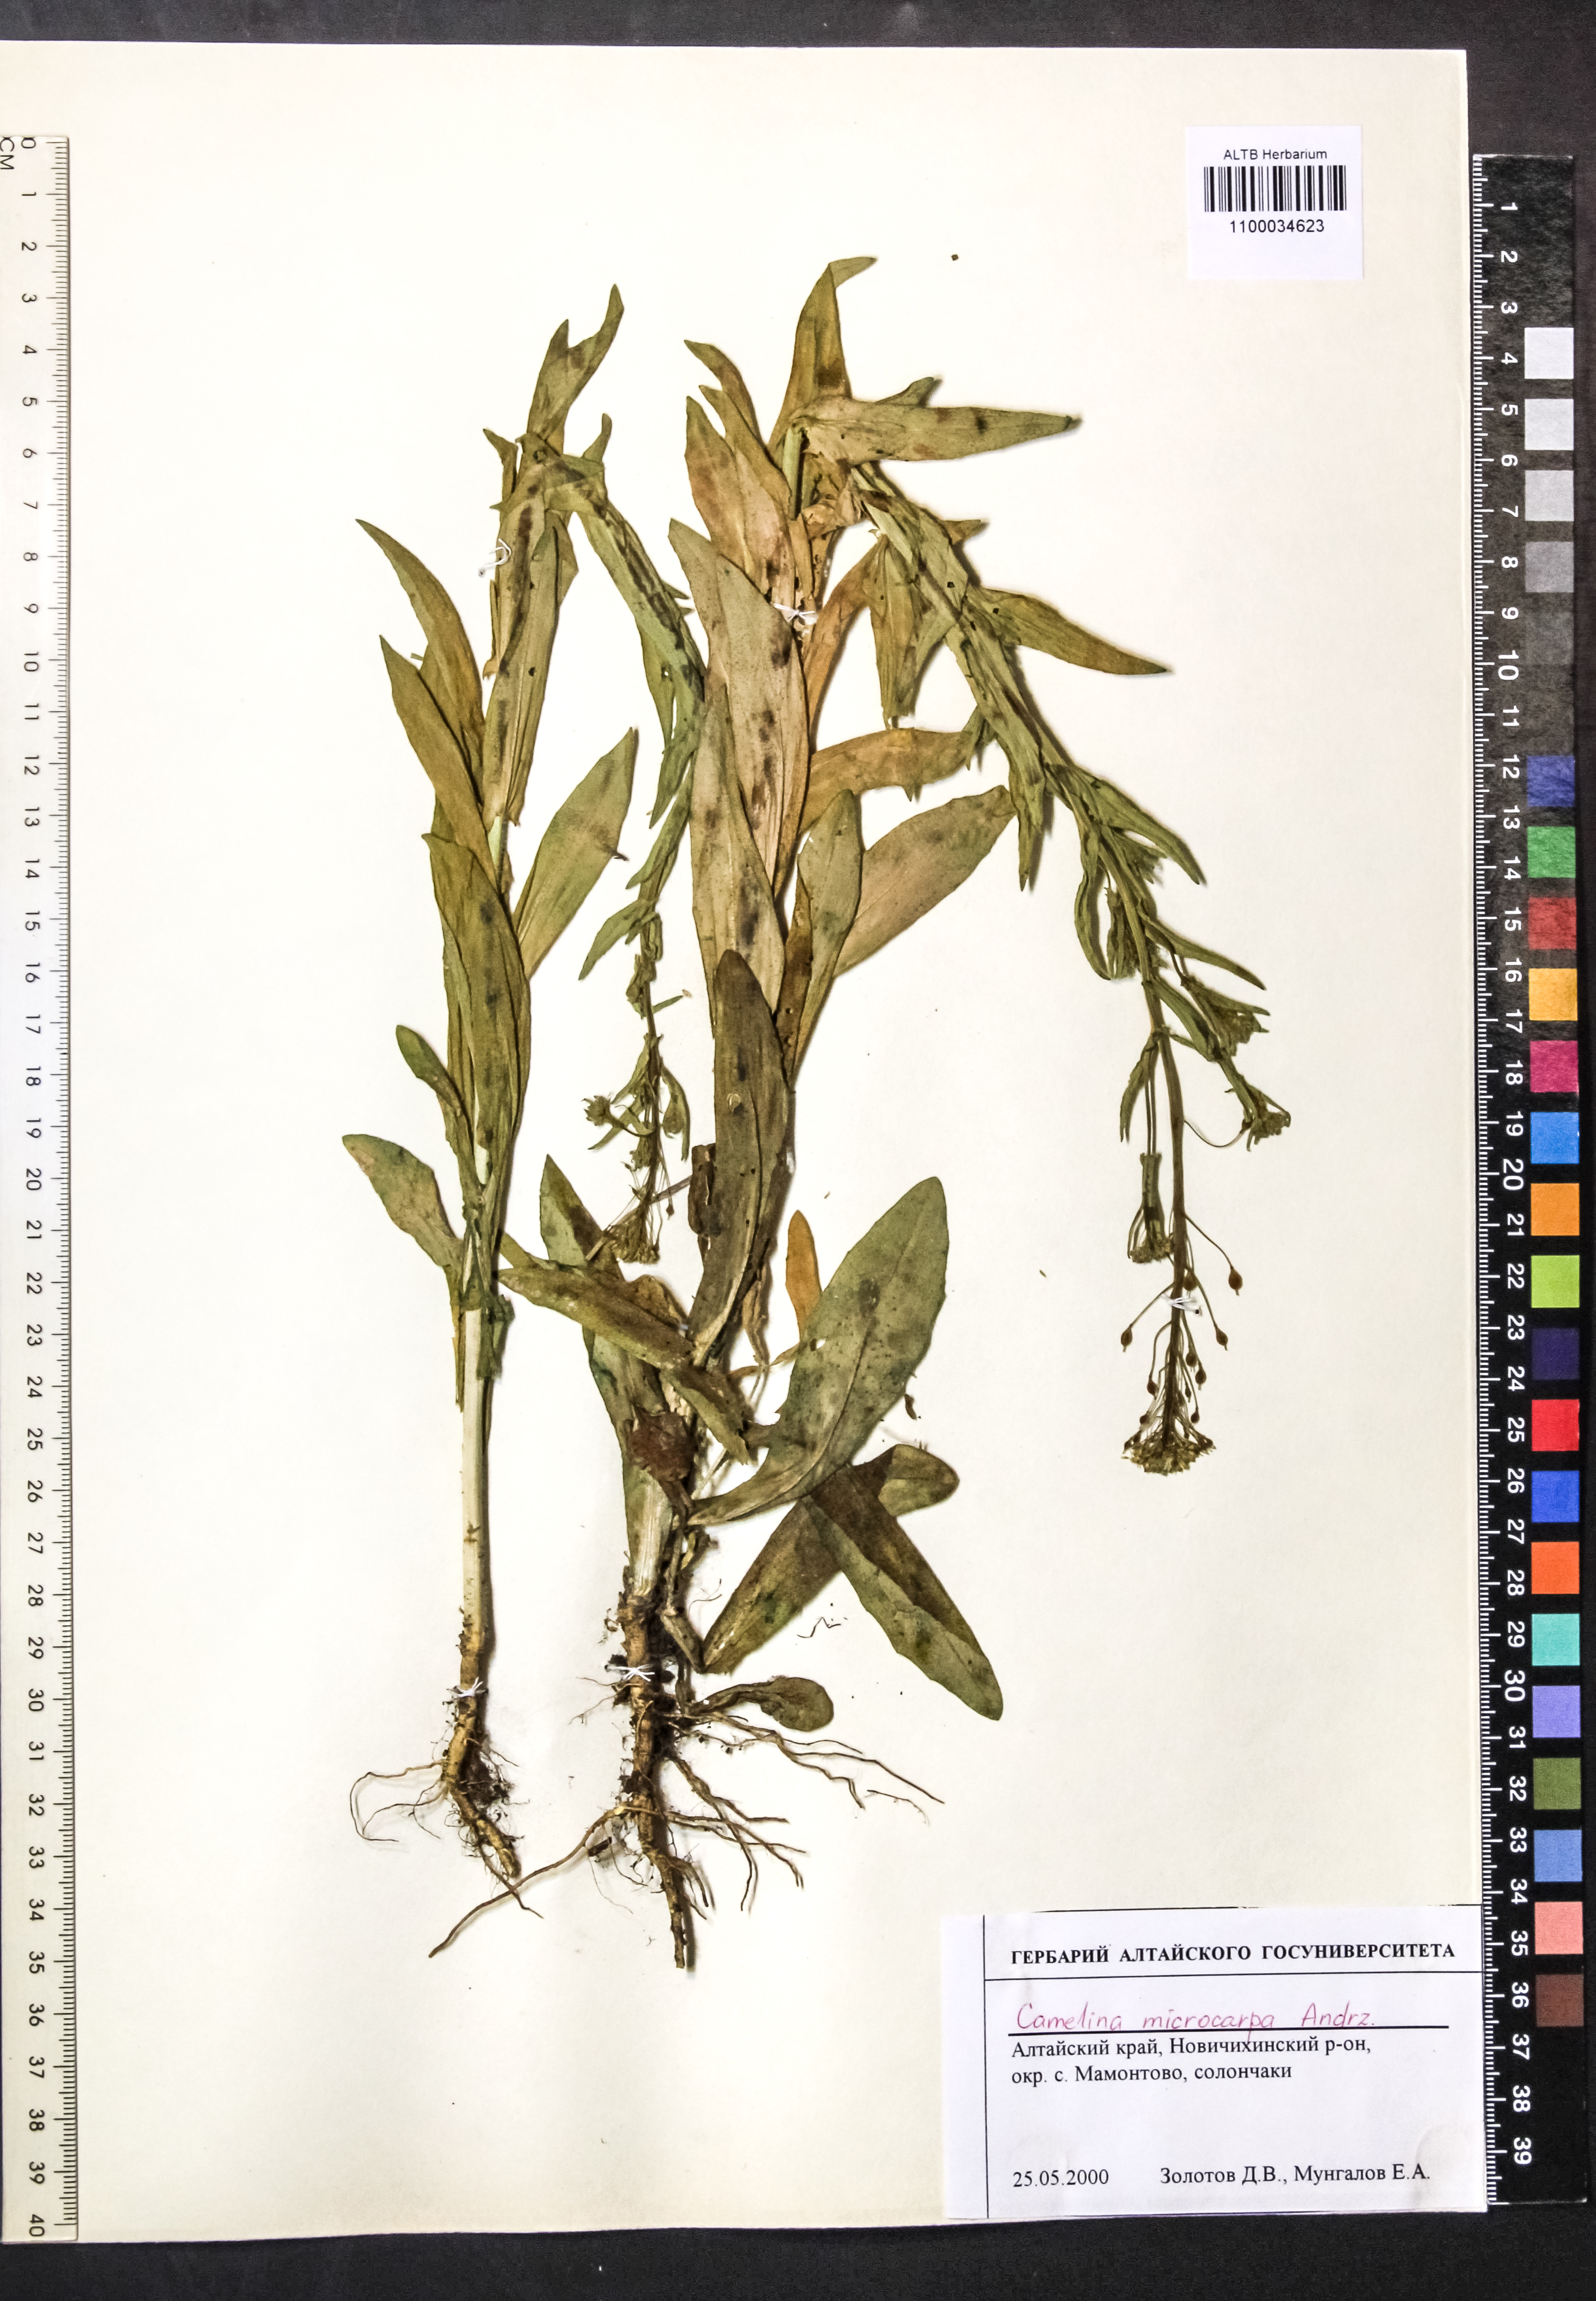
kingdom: Plantae
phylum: Tracheophyta
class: Magnoliopsida
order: Brassicales
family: Brassicaceae
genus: Camelina
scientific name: Camelina microcarpa
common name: Lesser gold-of-pleasure
